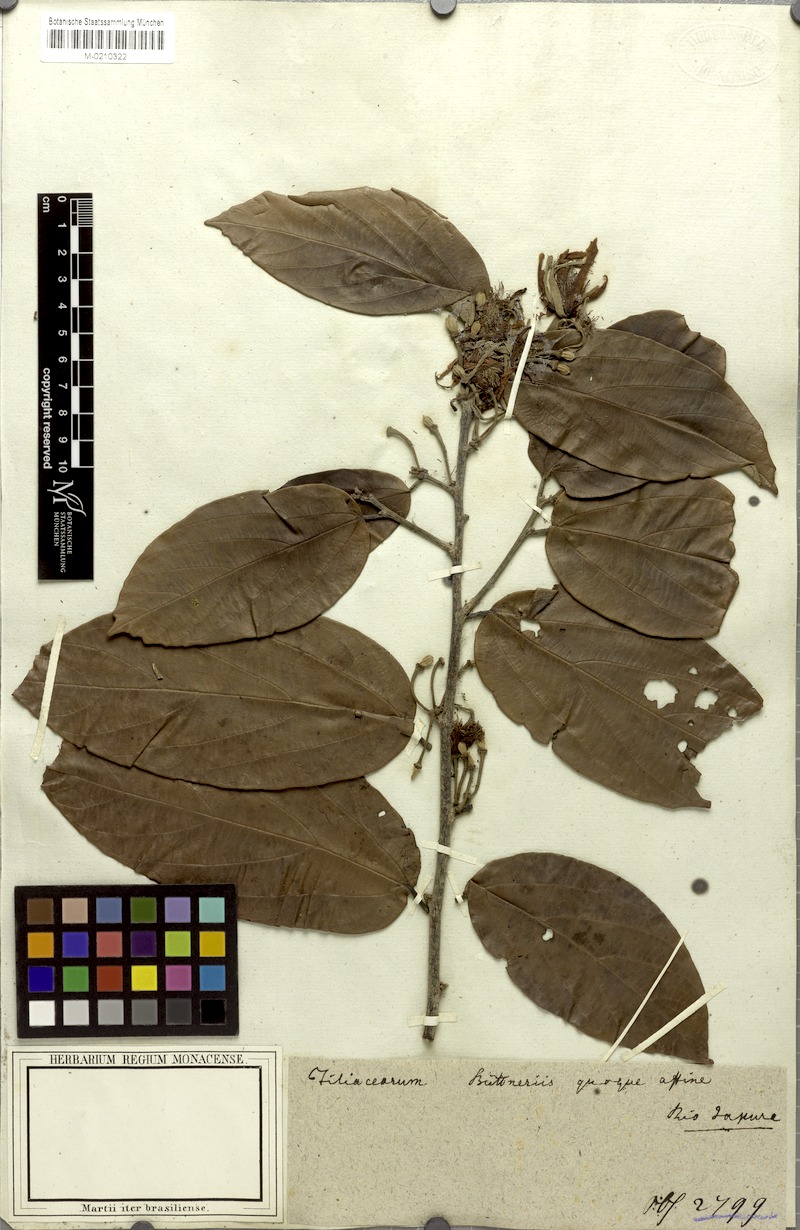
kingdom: Plantae
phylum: Tracheophyta
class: Magnoliopsida
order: Malvales
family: Malvaceae
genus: Mollia
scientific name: Mollia speciosa
